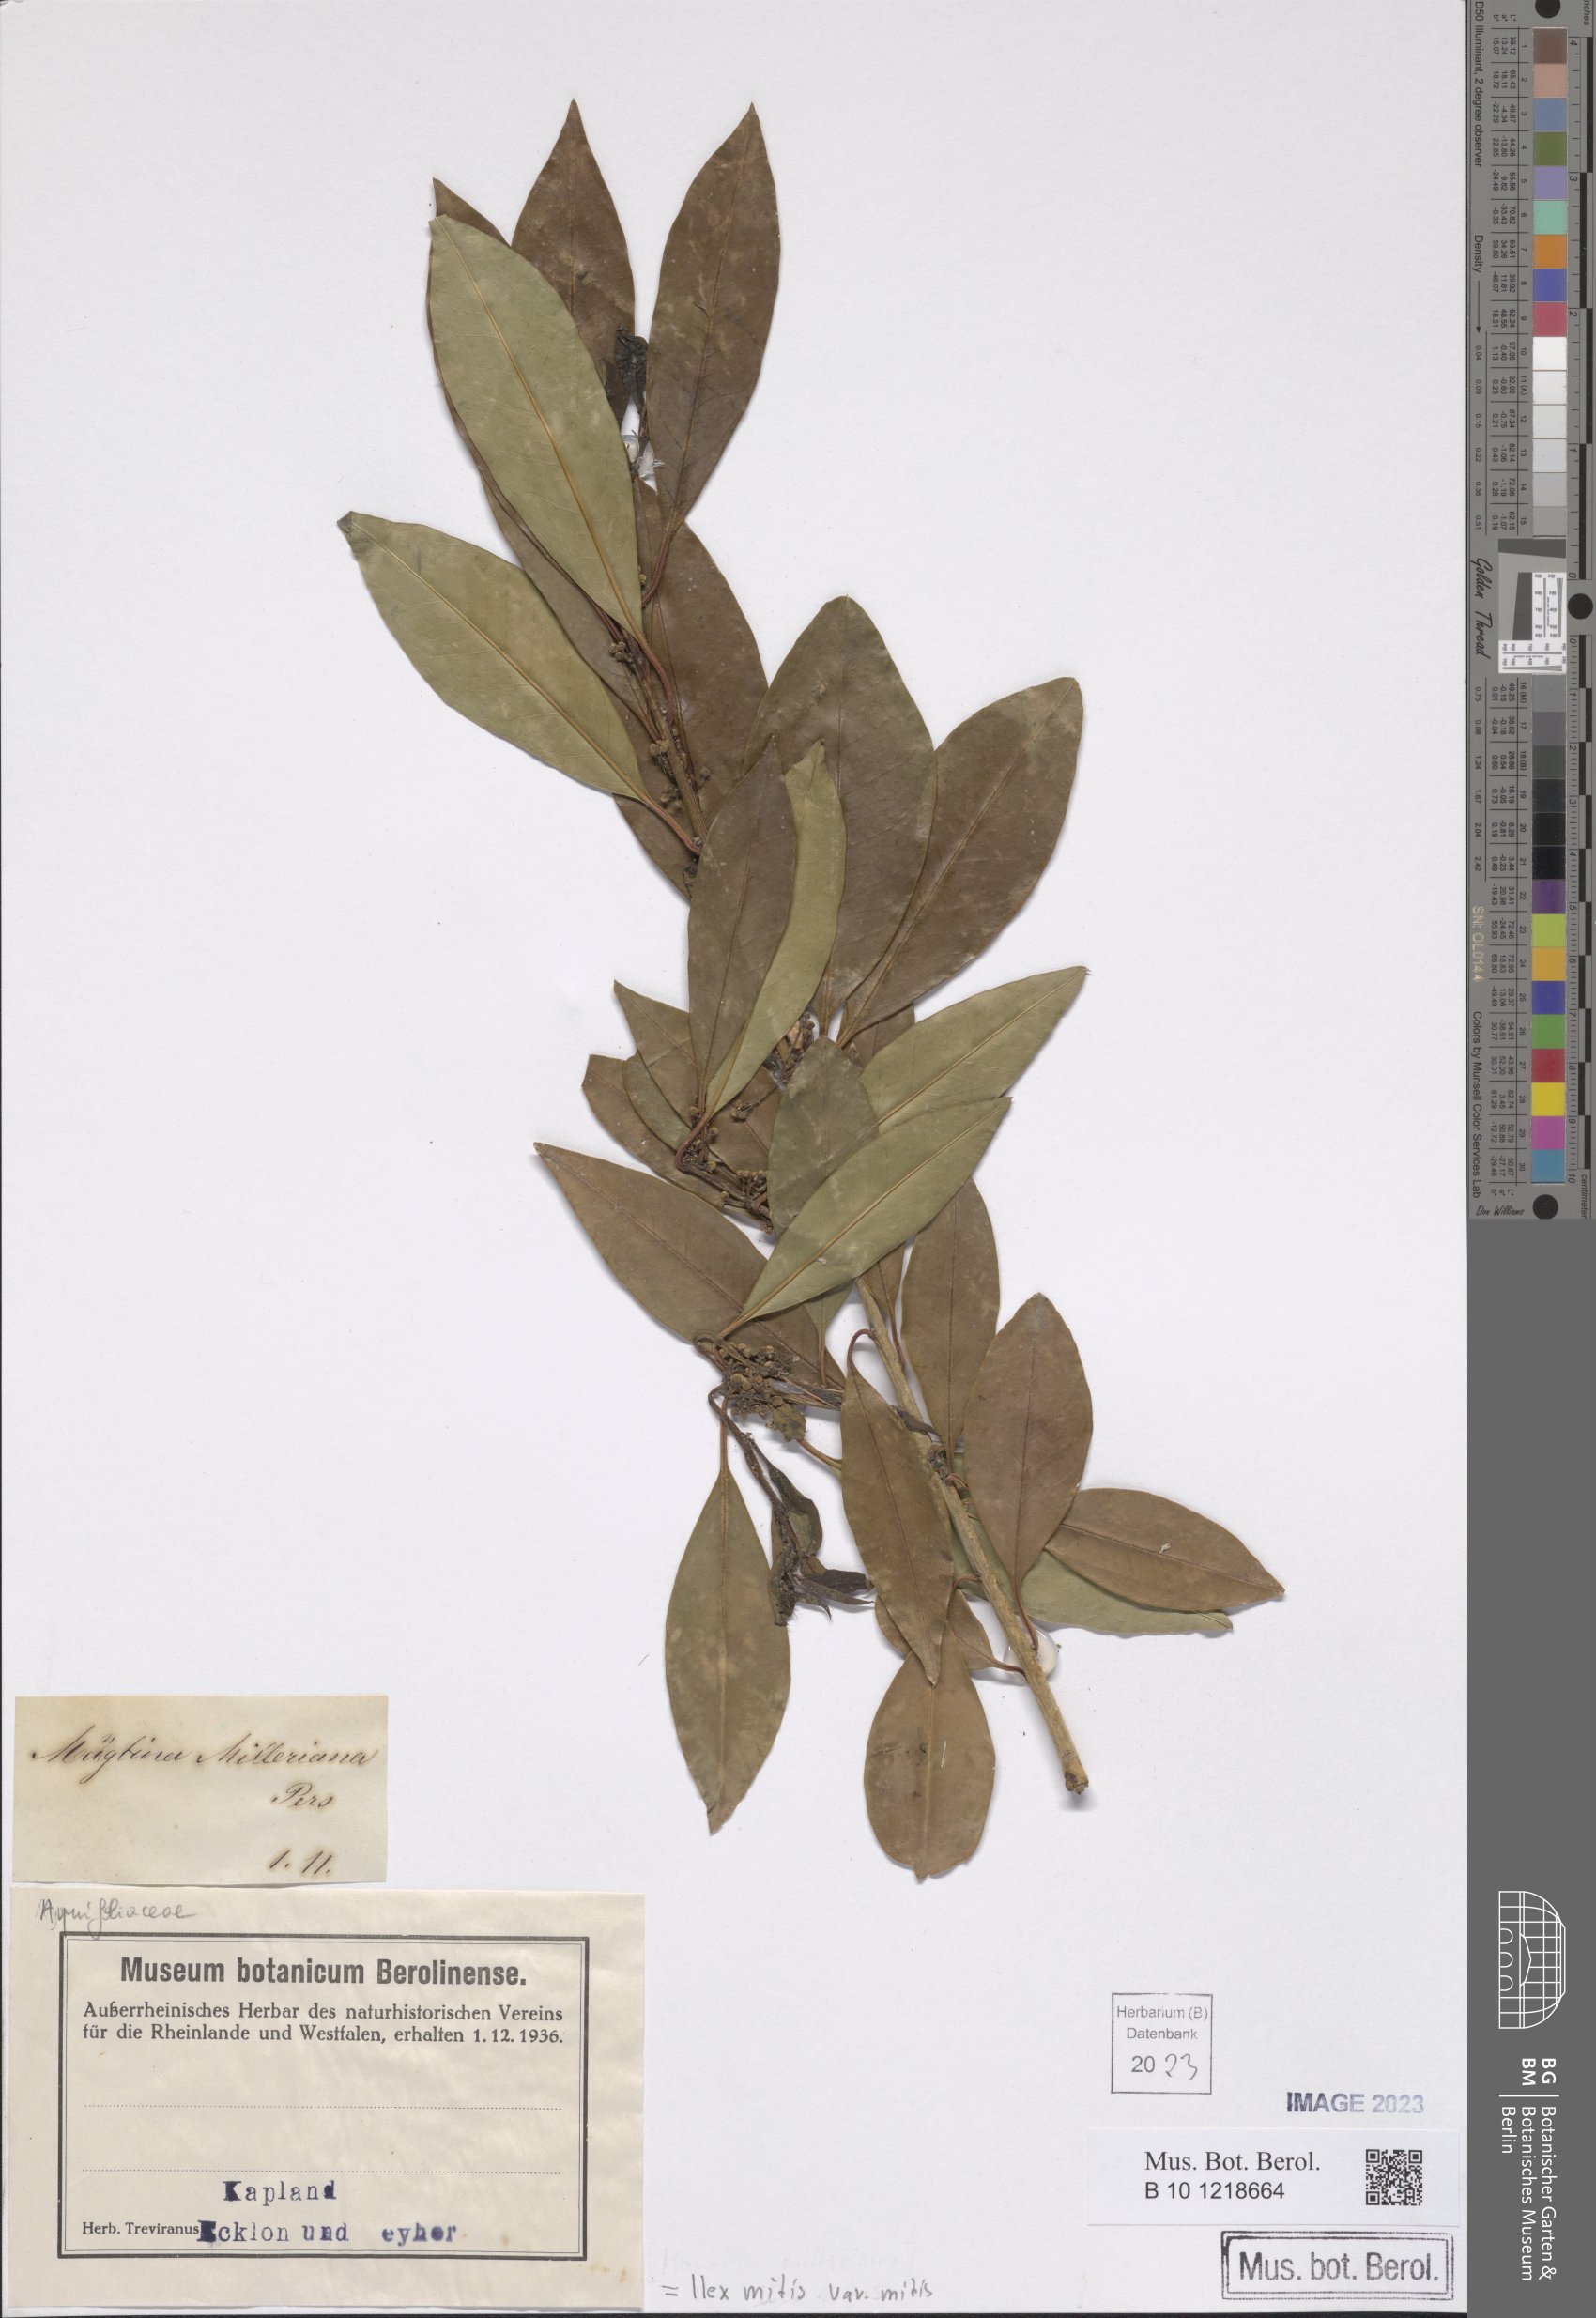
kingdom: Plantae
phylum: Tracheophyta
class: Magnoliopsida
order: Aquifoliales
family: Aquifoliaceae
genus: Ilex
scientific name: Ilex mitis
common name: African holly
